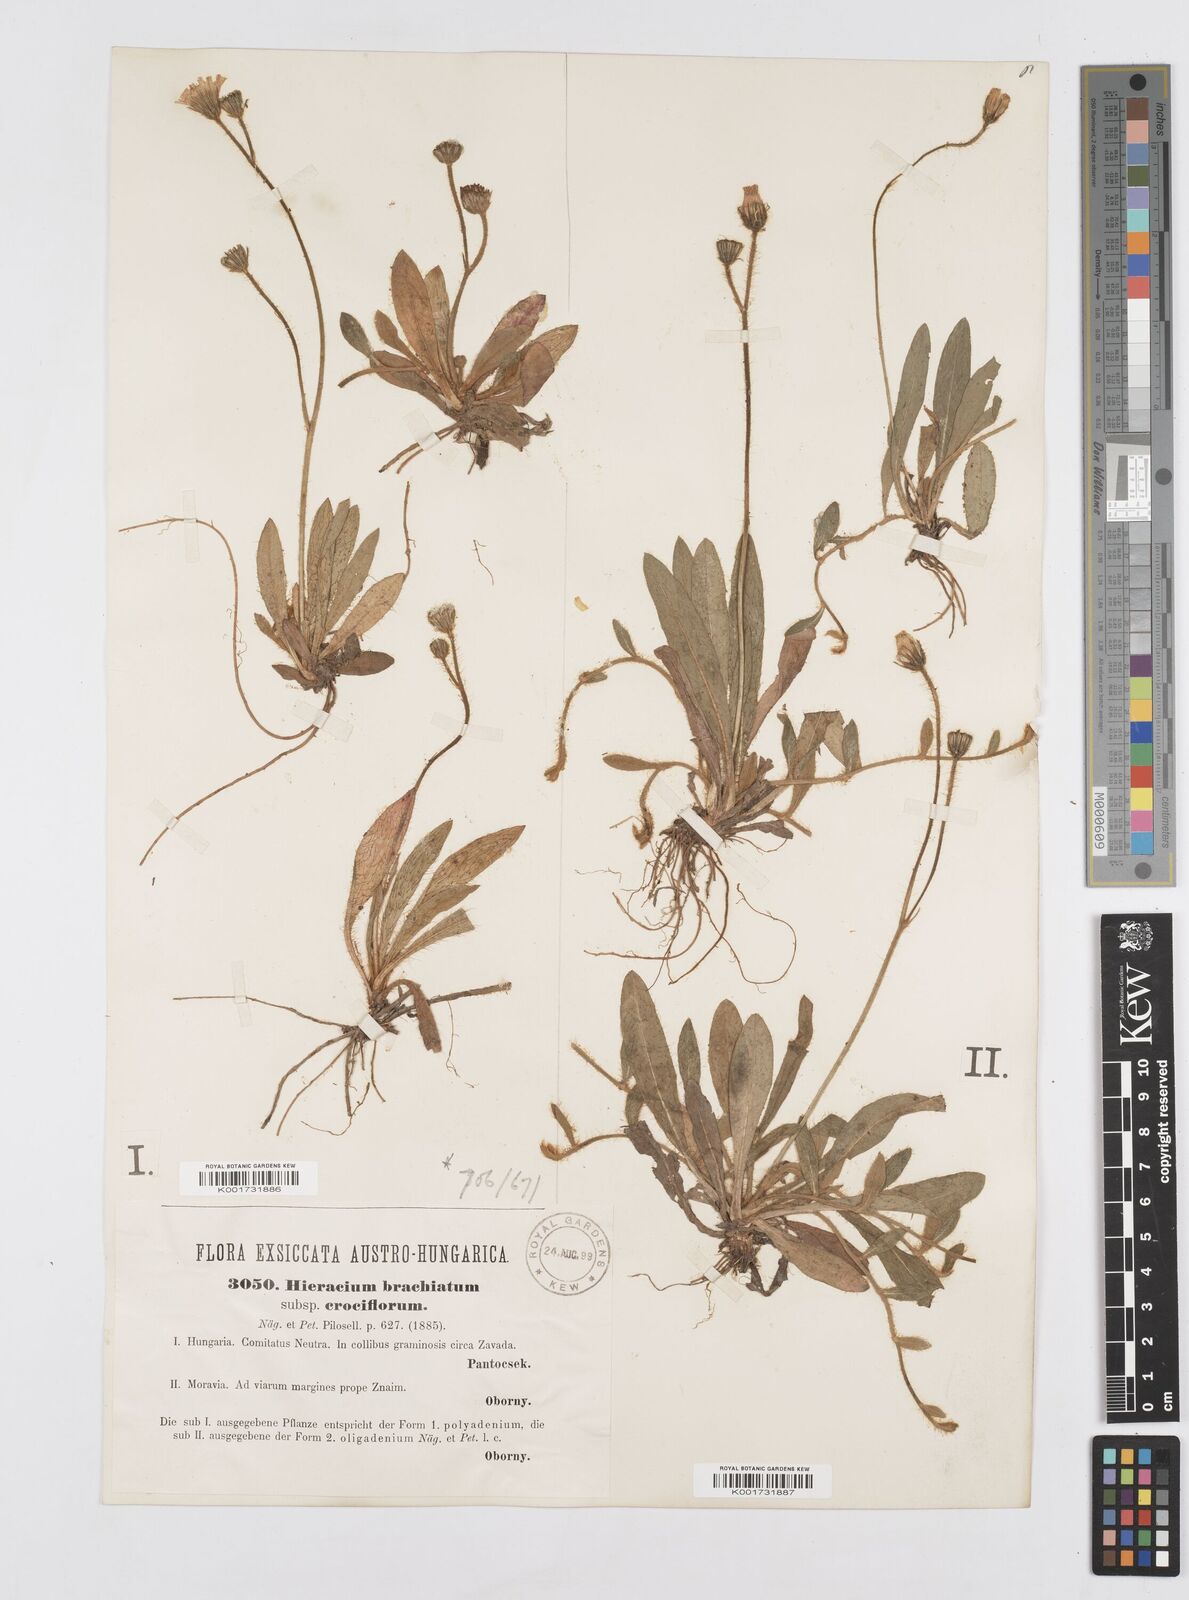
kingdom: Plantae
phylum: Tracheophyta
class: Magnoliopsida
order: Asterales
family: Asteraceae
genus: Pilosella
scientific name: Pilosella acutifolia
